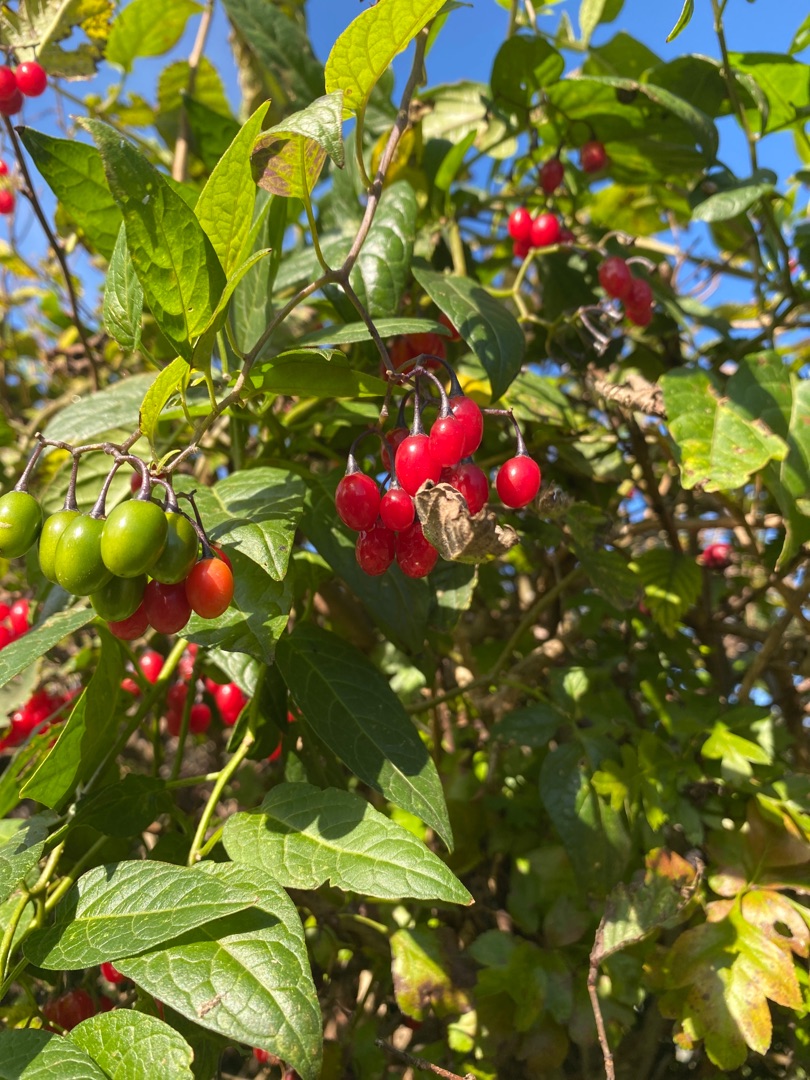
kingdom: Plantae
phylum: Tracheophyta
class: Magnoliopsida
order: Solanales
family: Solanaceae
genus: Solanum
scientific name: Solanum dulcamara
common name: Bittersød natskygge
